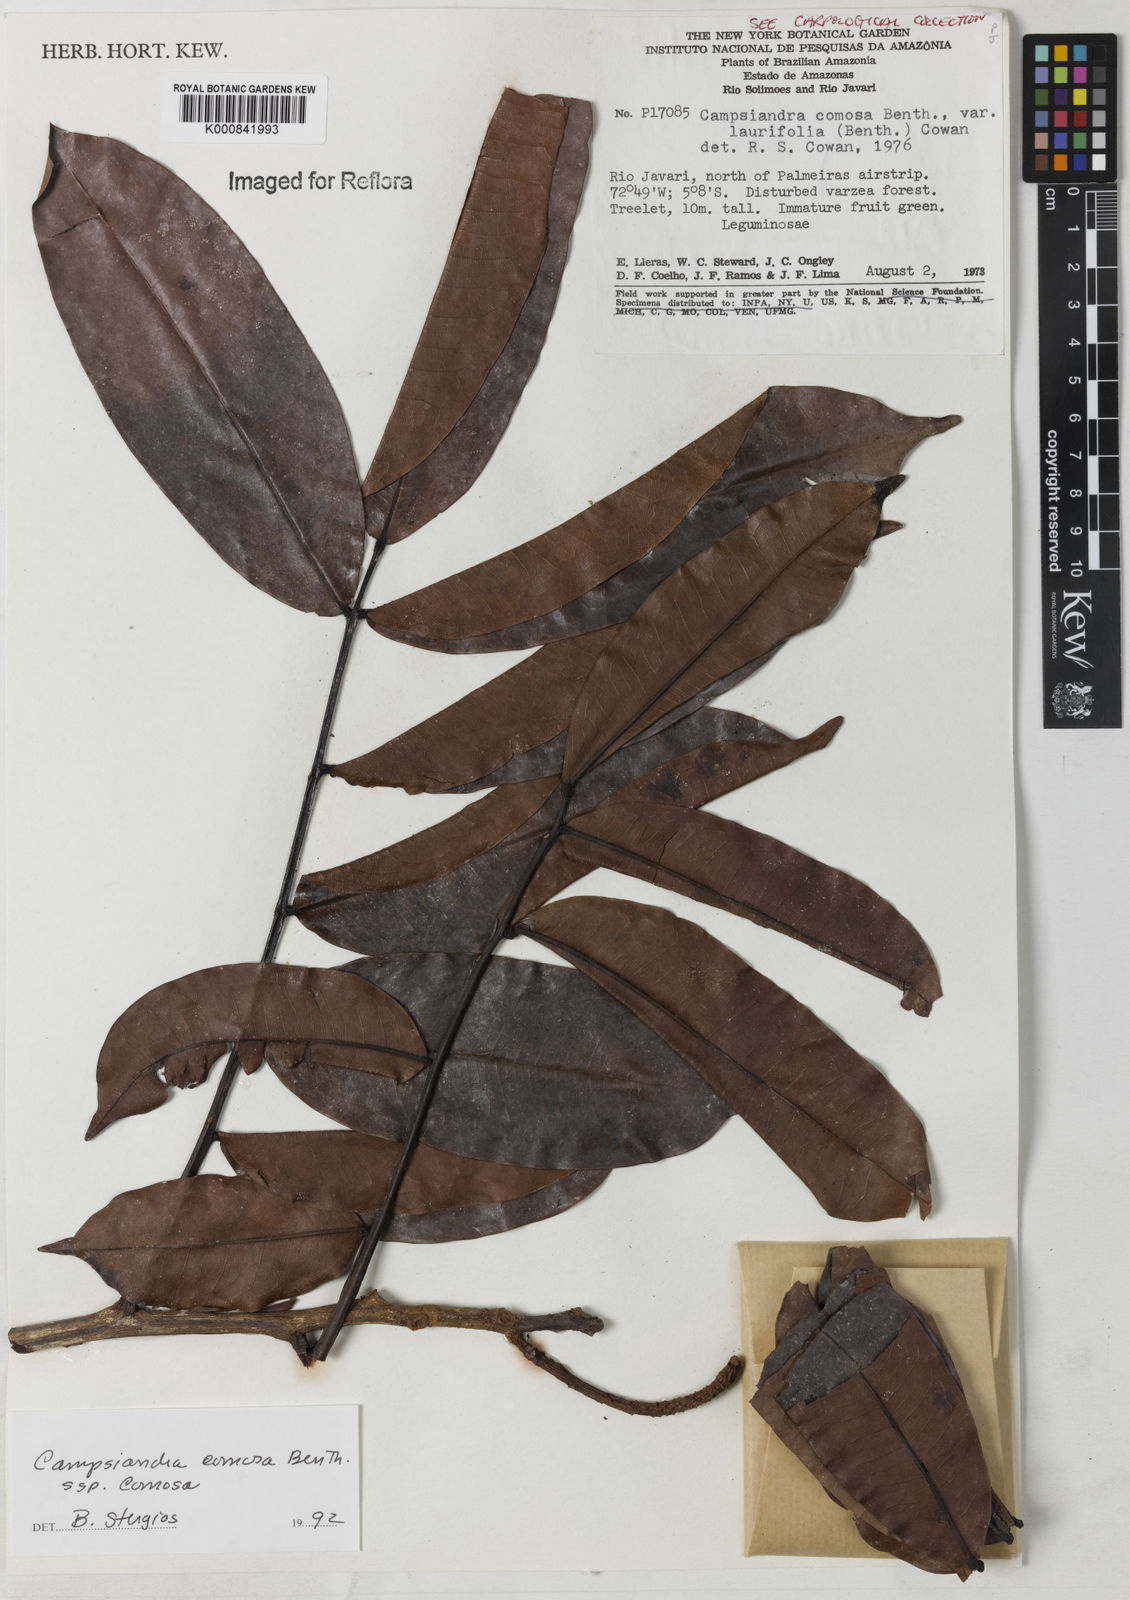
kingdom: Plantae
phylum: Tracheophyta
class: Magnoliopsida
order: Fabales
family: Fabaceae
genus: Campsiandra
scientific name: Campsiandra comosa
